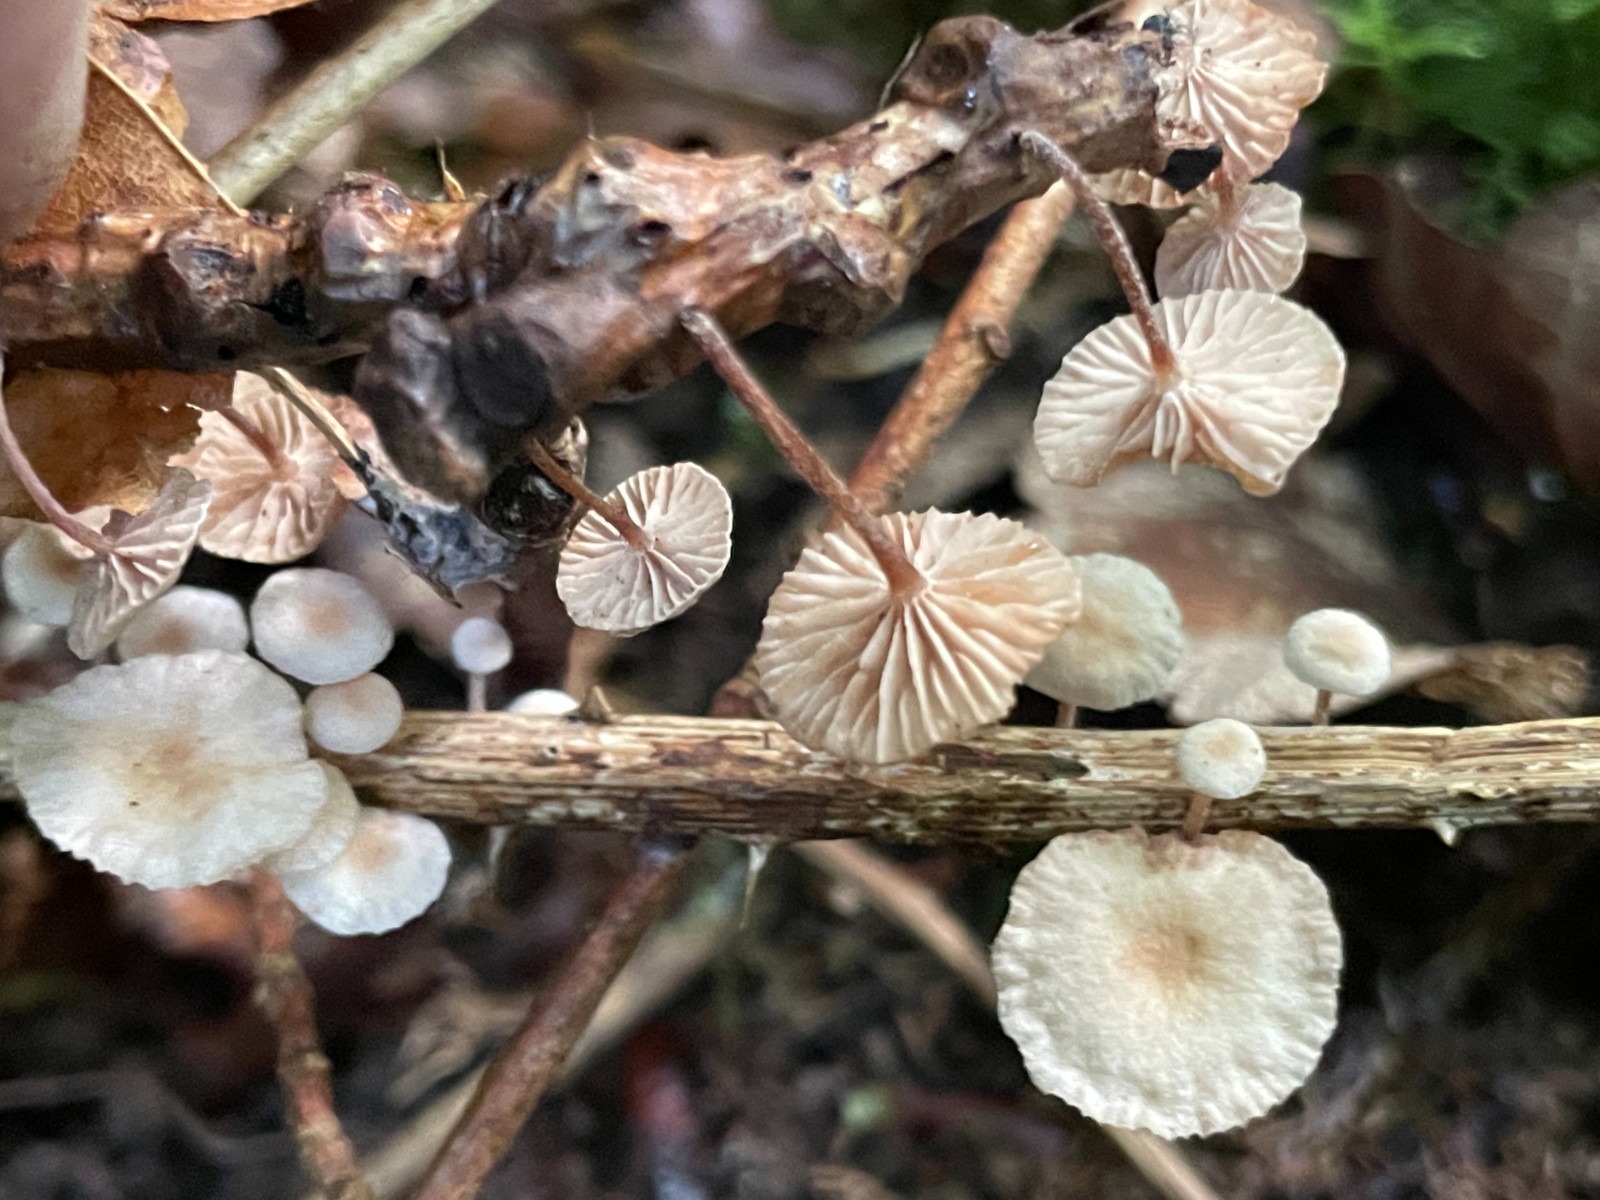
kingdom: Fungi
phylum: Basidiomycota
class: Agaricomycetes
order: Agaricales
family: Omphalotaceae
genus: Collybiopsis
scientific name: Collybiopsis ramealis
